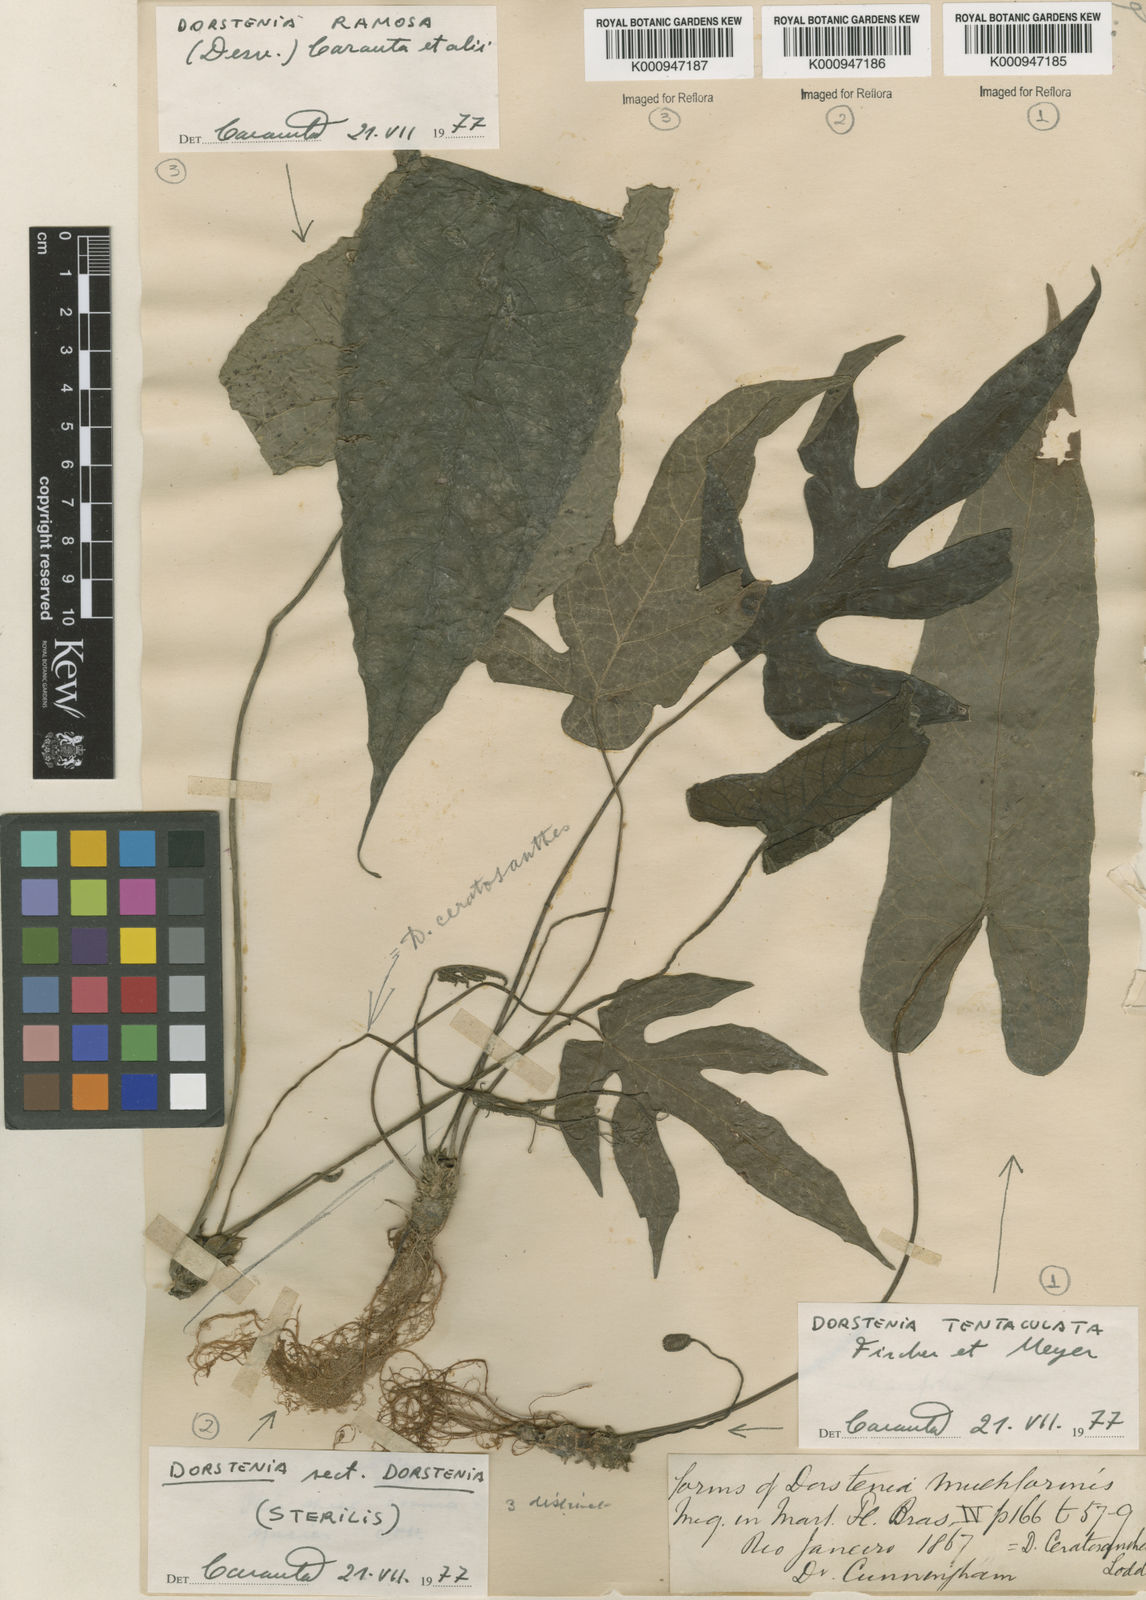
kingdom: Plantae
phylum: Tracheophyta
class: Magnoliopsida
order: Rosales
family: Moraceae
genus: Dorstenia
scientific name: Dorstenia tentaculata
